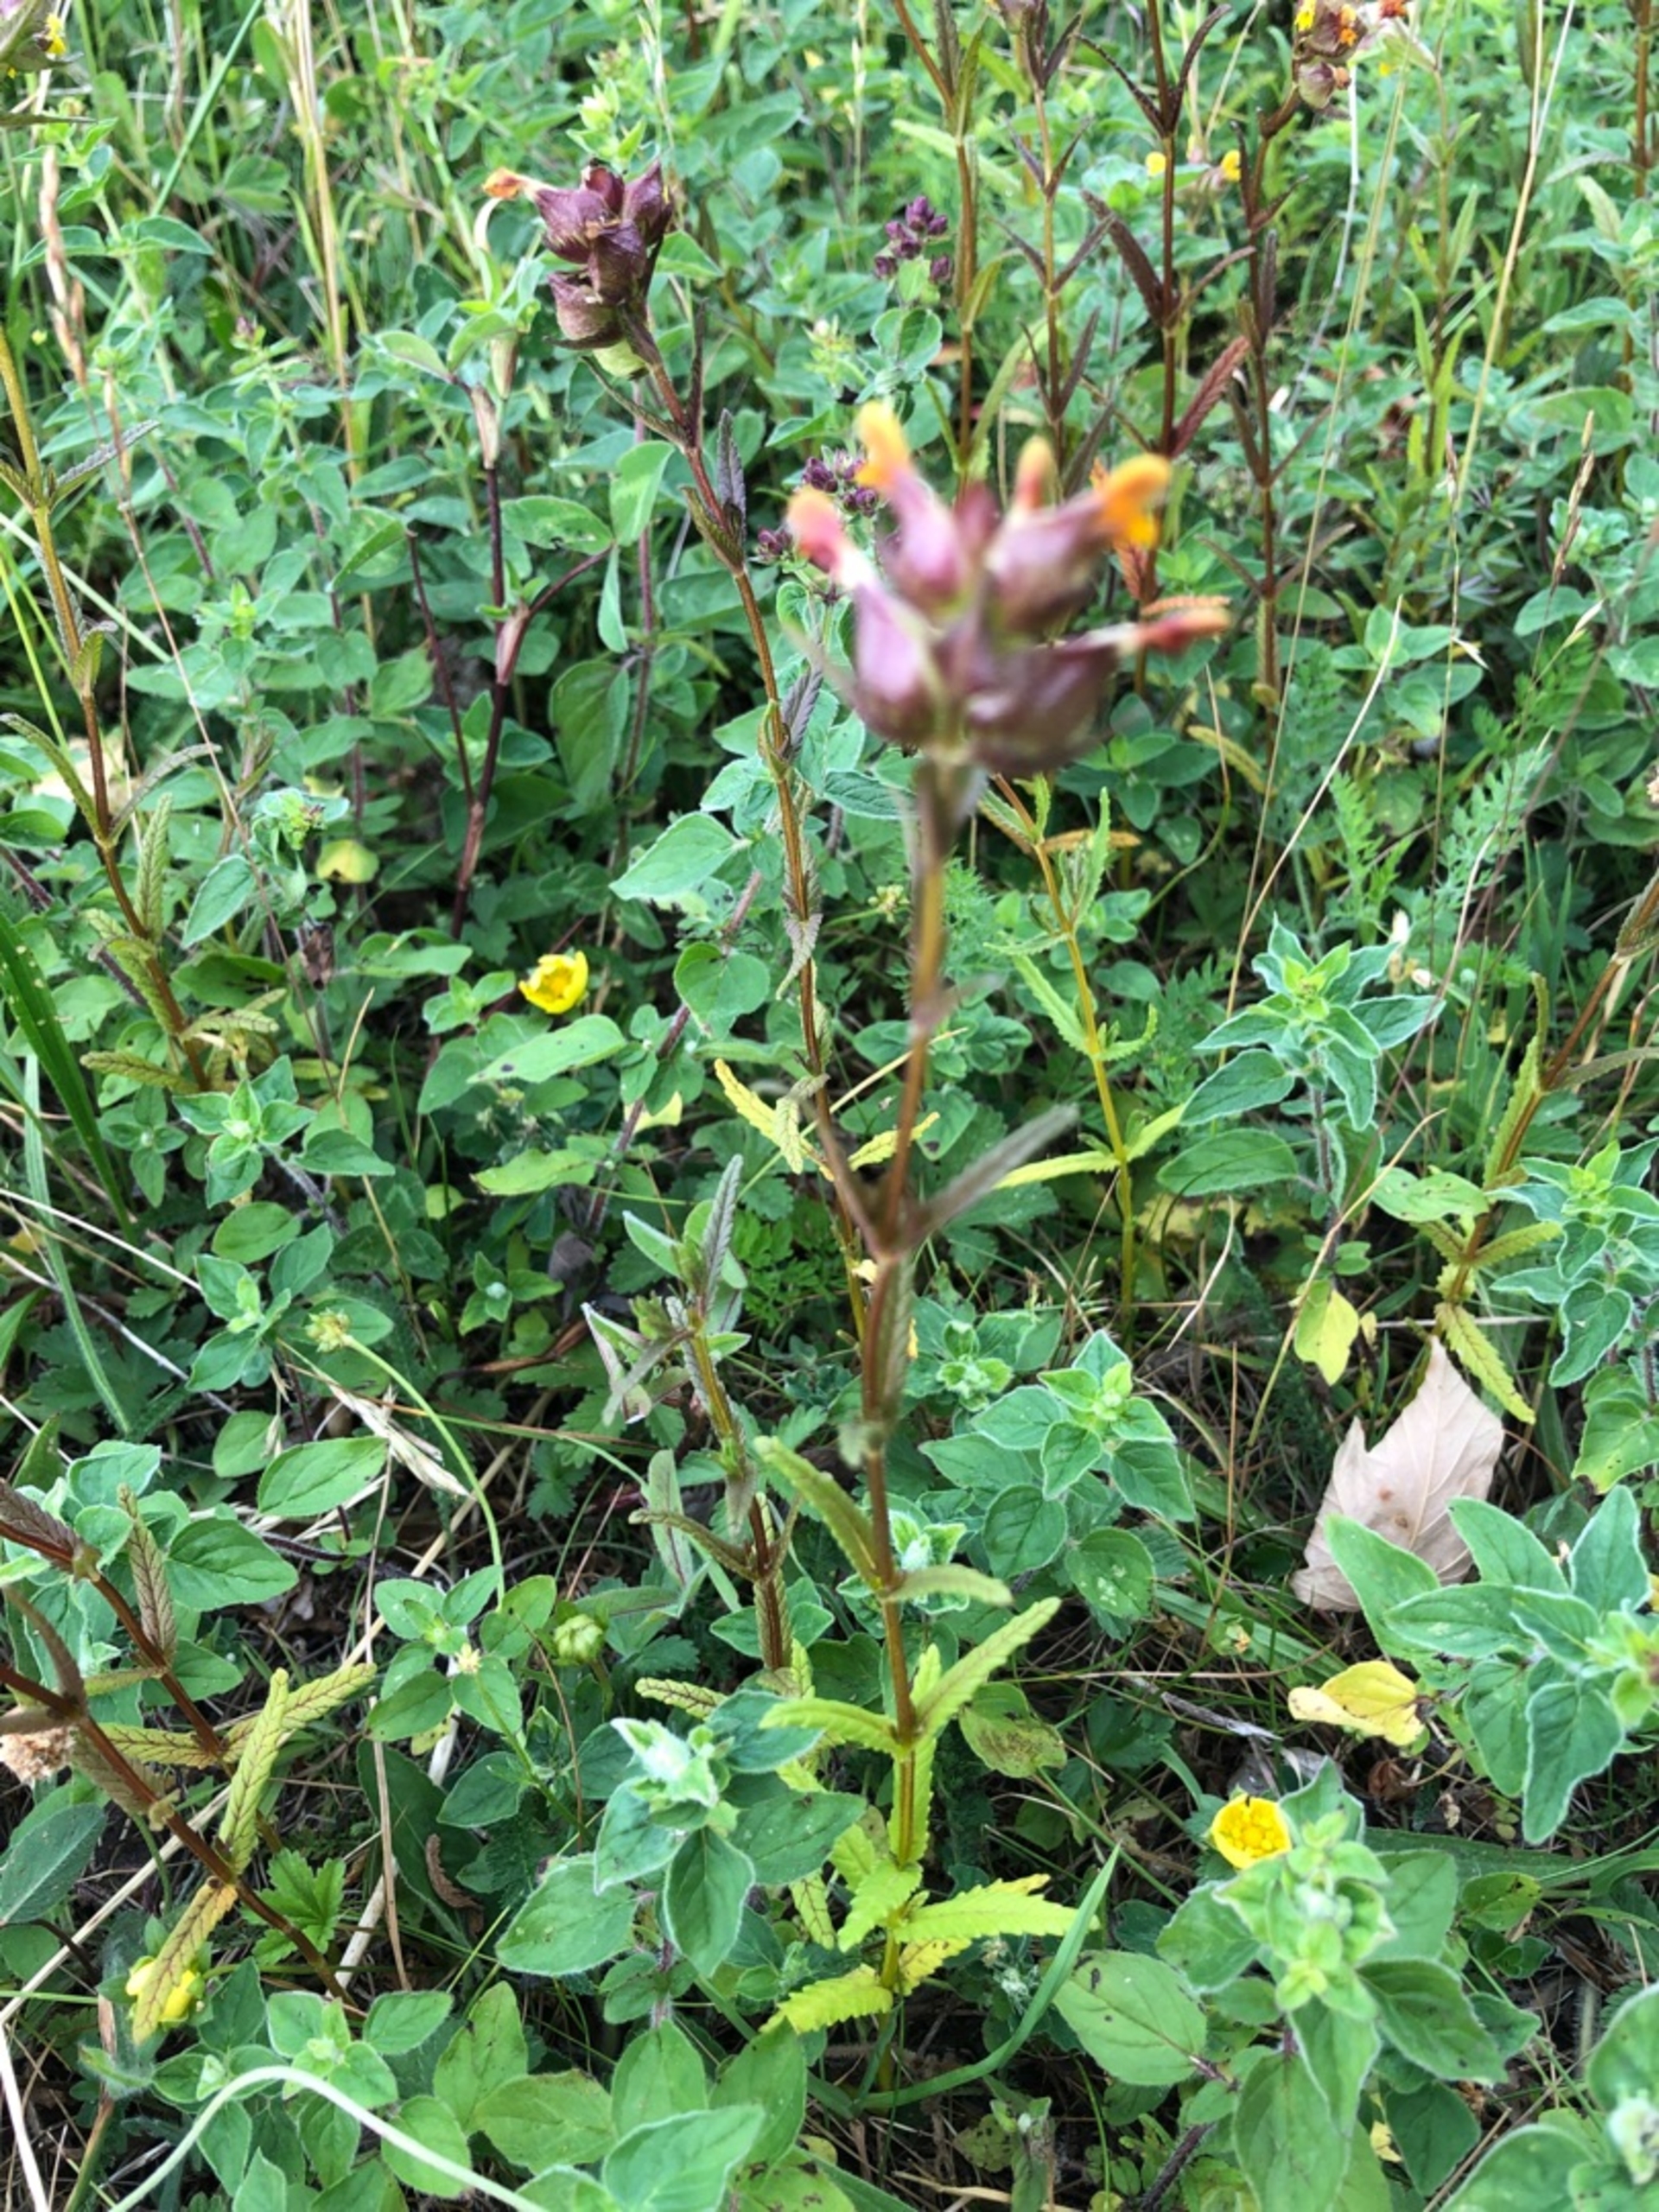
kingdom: Plantae
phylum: Tracheophyta
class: Magnoliopsida
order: Lamiales
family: Orobanchaceae
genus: Rhinanthus
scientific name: Rhinanthus minor
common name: Liden skjaller
